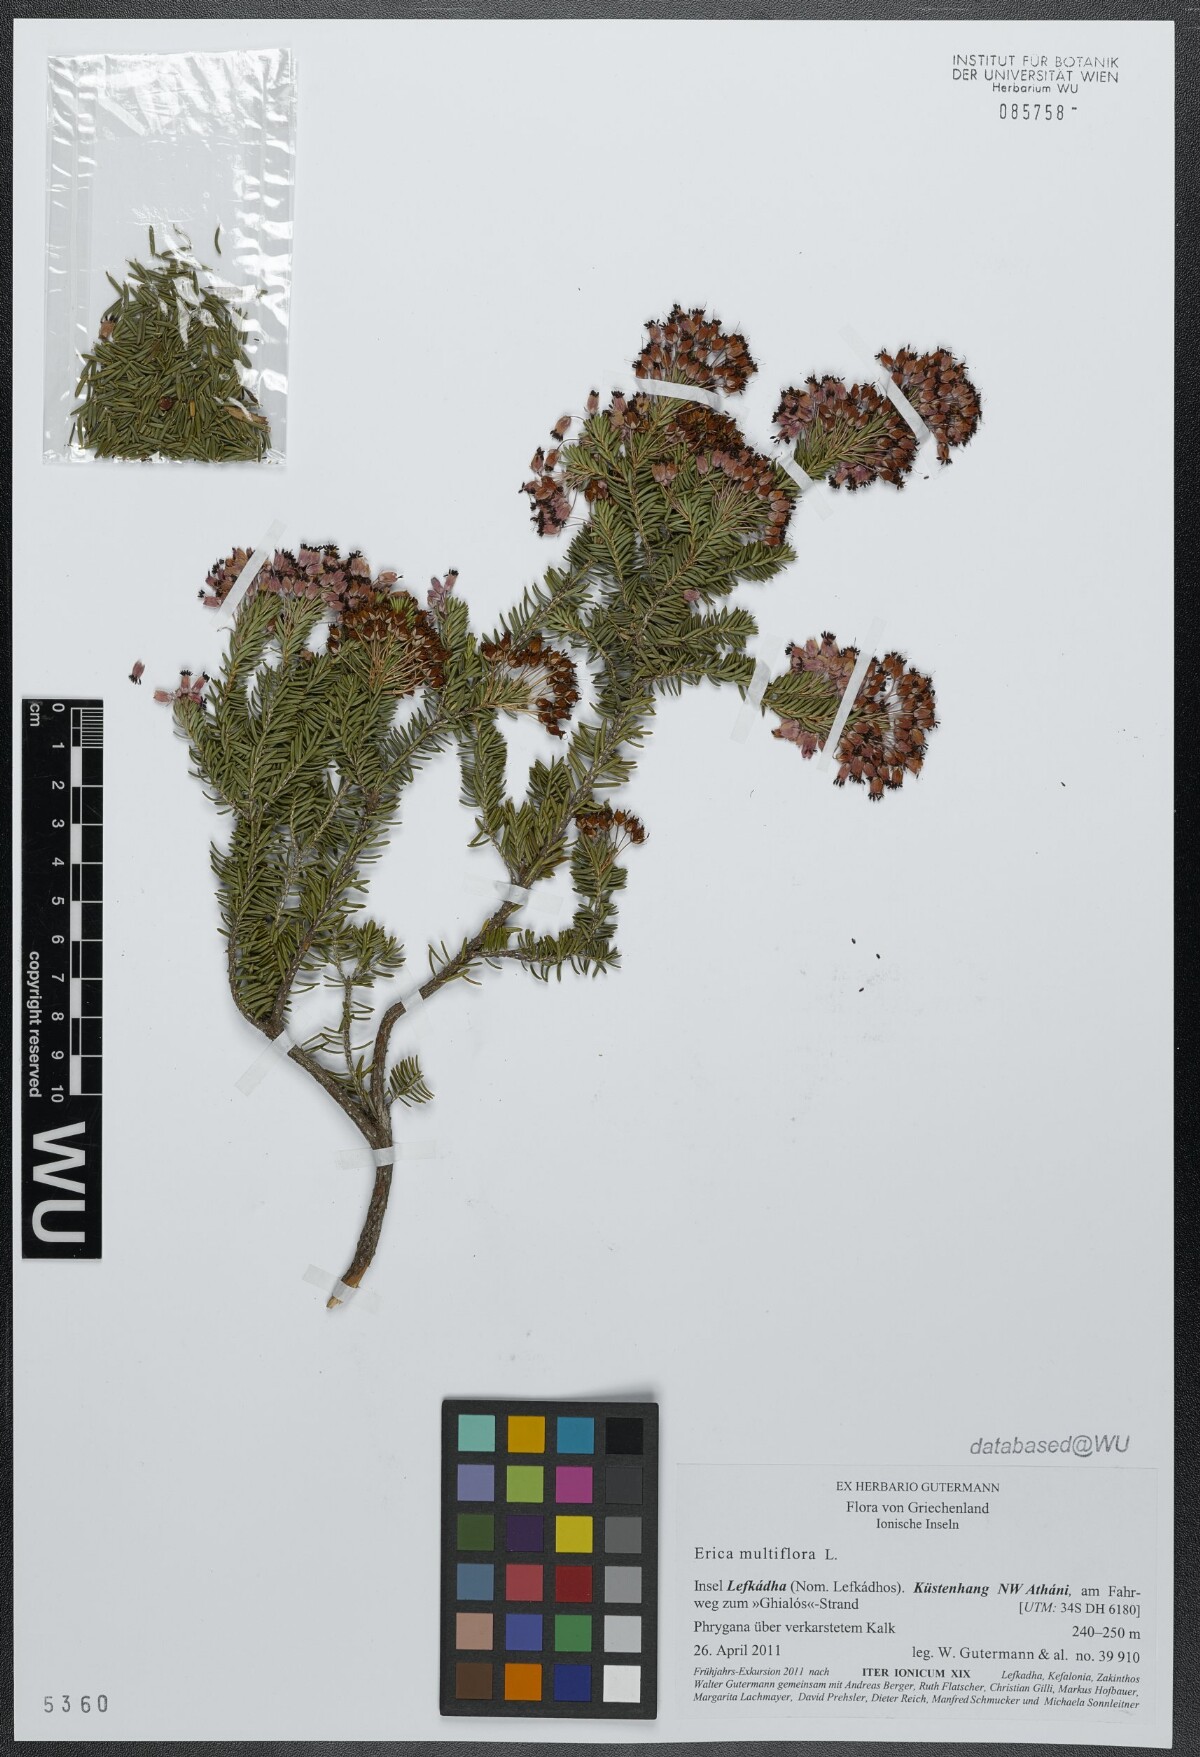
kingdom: Plantae
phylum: Tracheophyta
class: Magnoliopsida
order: Ericales
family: Ericaceae
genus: Erica
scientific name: Erica multiflora
